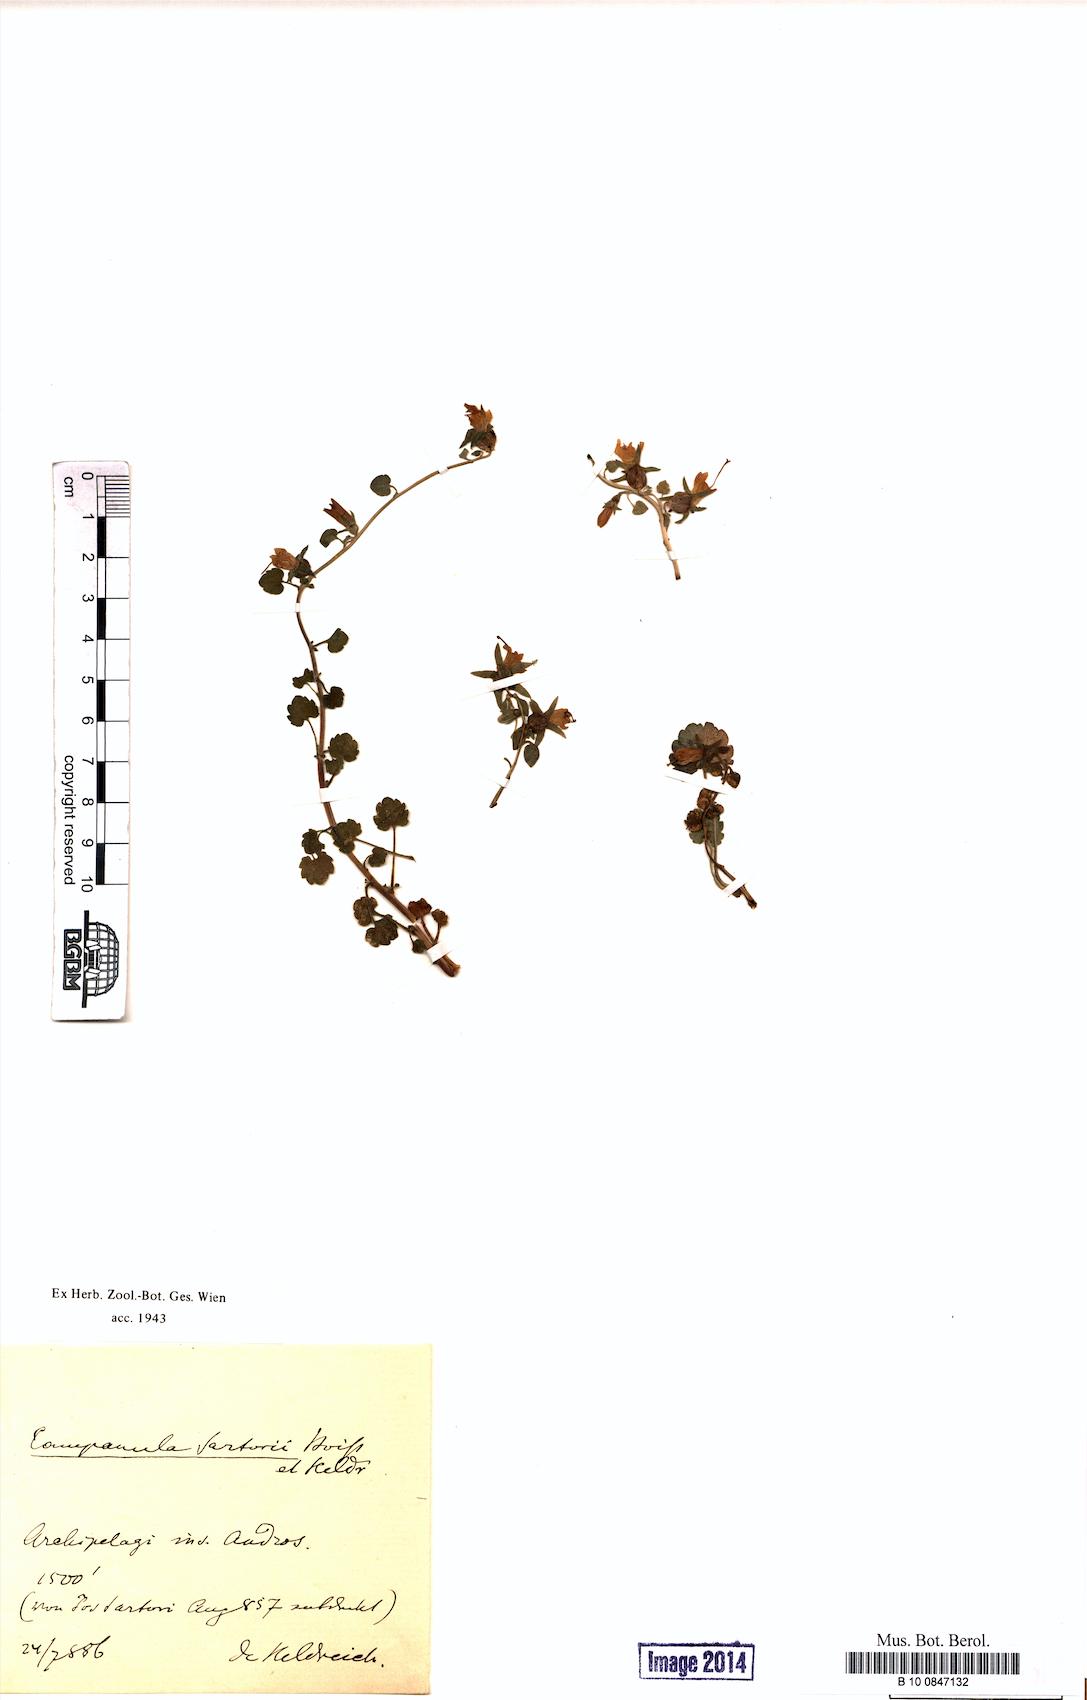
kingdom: Plantae
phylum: Tracheophyta
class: Magnoliopsida
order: Asterales
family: Campanulaceae
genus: Campanula
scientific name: Campanula sartorii
